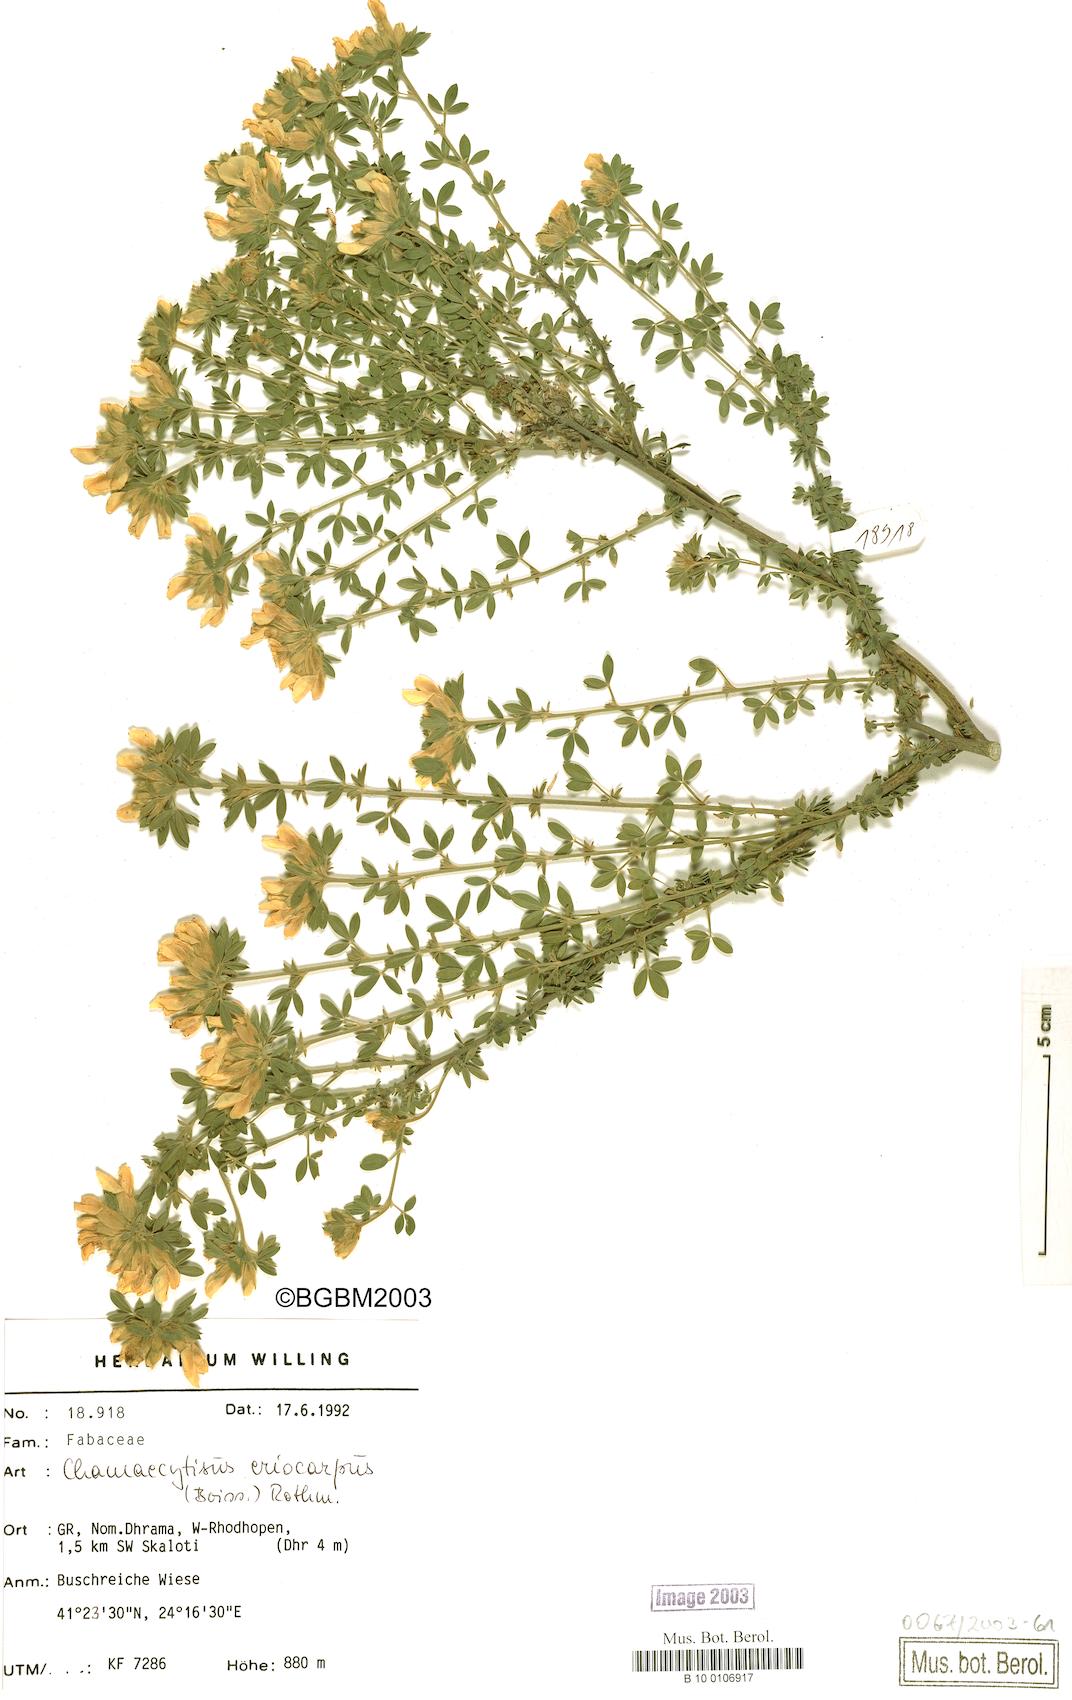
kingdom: Plantae
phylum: Tracheophyta
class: Magnoliopsida
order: Fabales
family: Fabaceae
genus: Chamaecytisus
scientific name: Chamaecytisus eriocarpus
